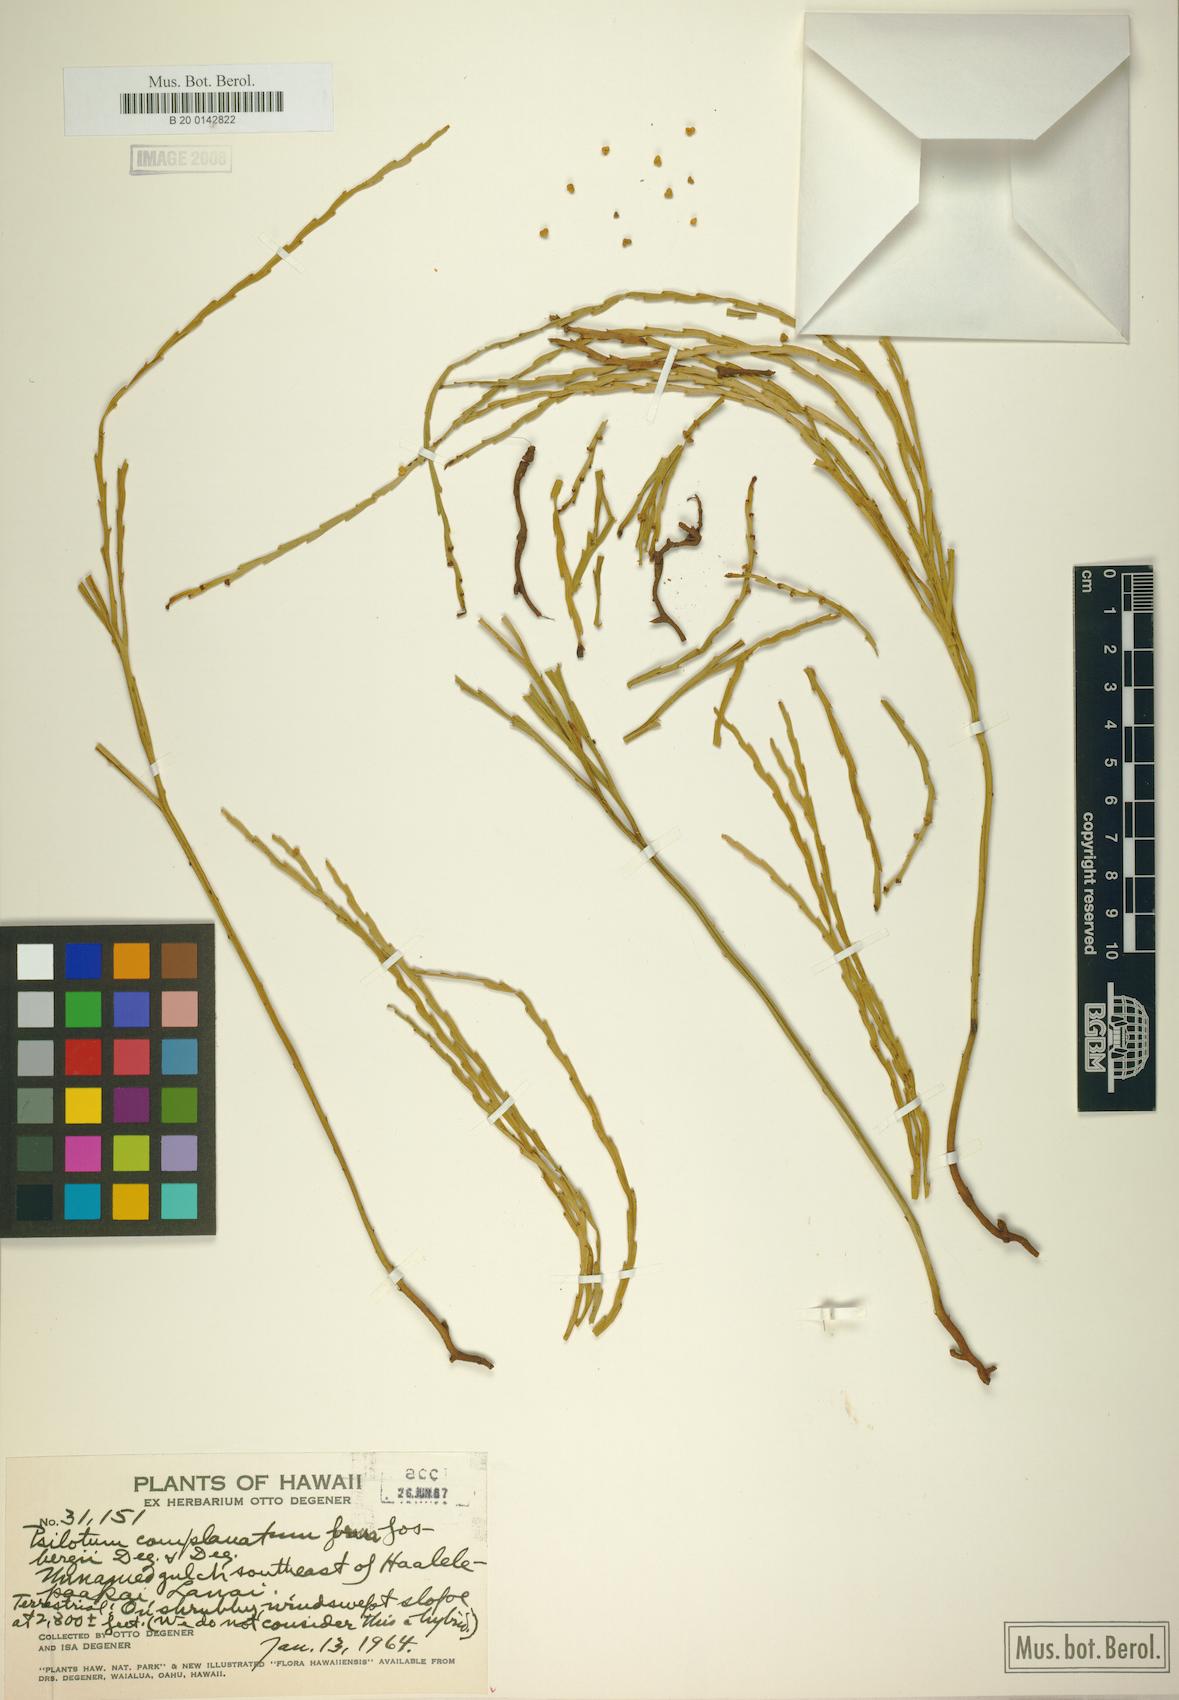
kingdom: Plantae
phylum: Tracheophyta
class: Polypodiopsida
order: Psilotales
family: Psilotaceae
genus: Psilotum
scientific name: Psilotum complanatum
